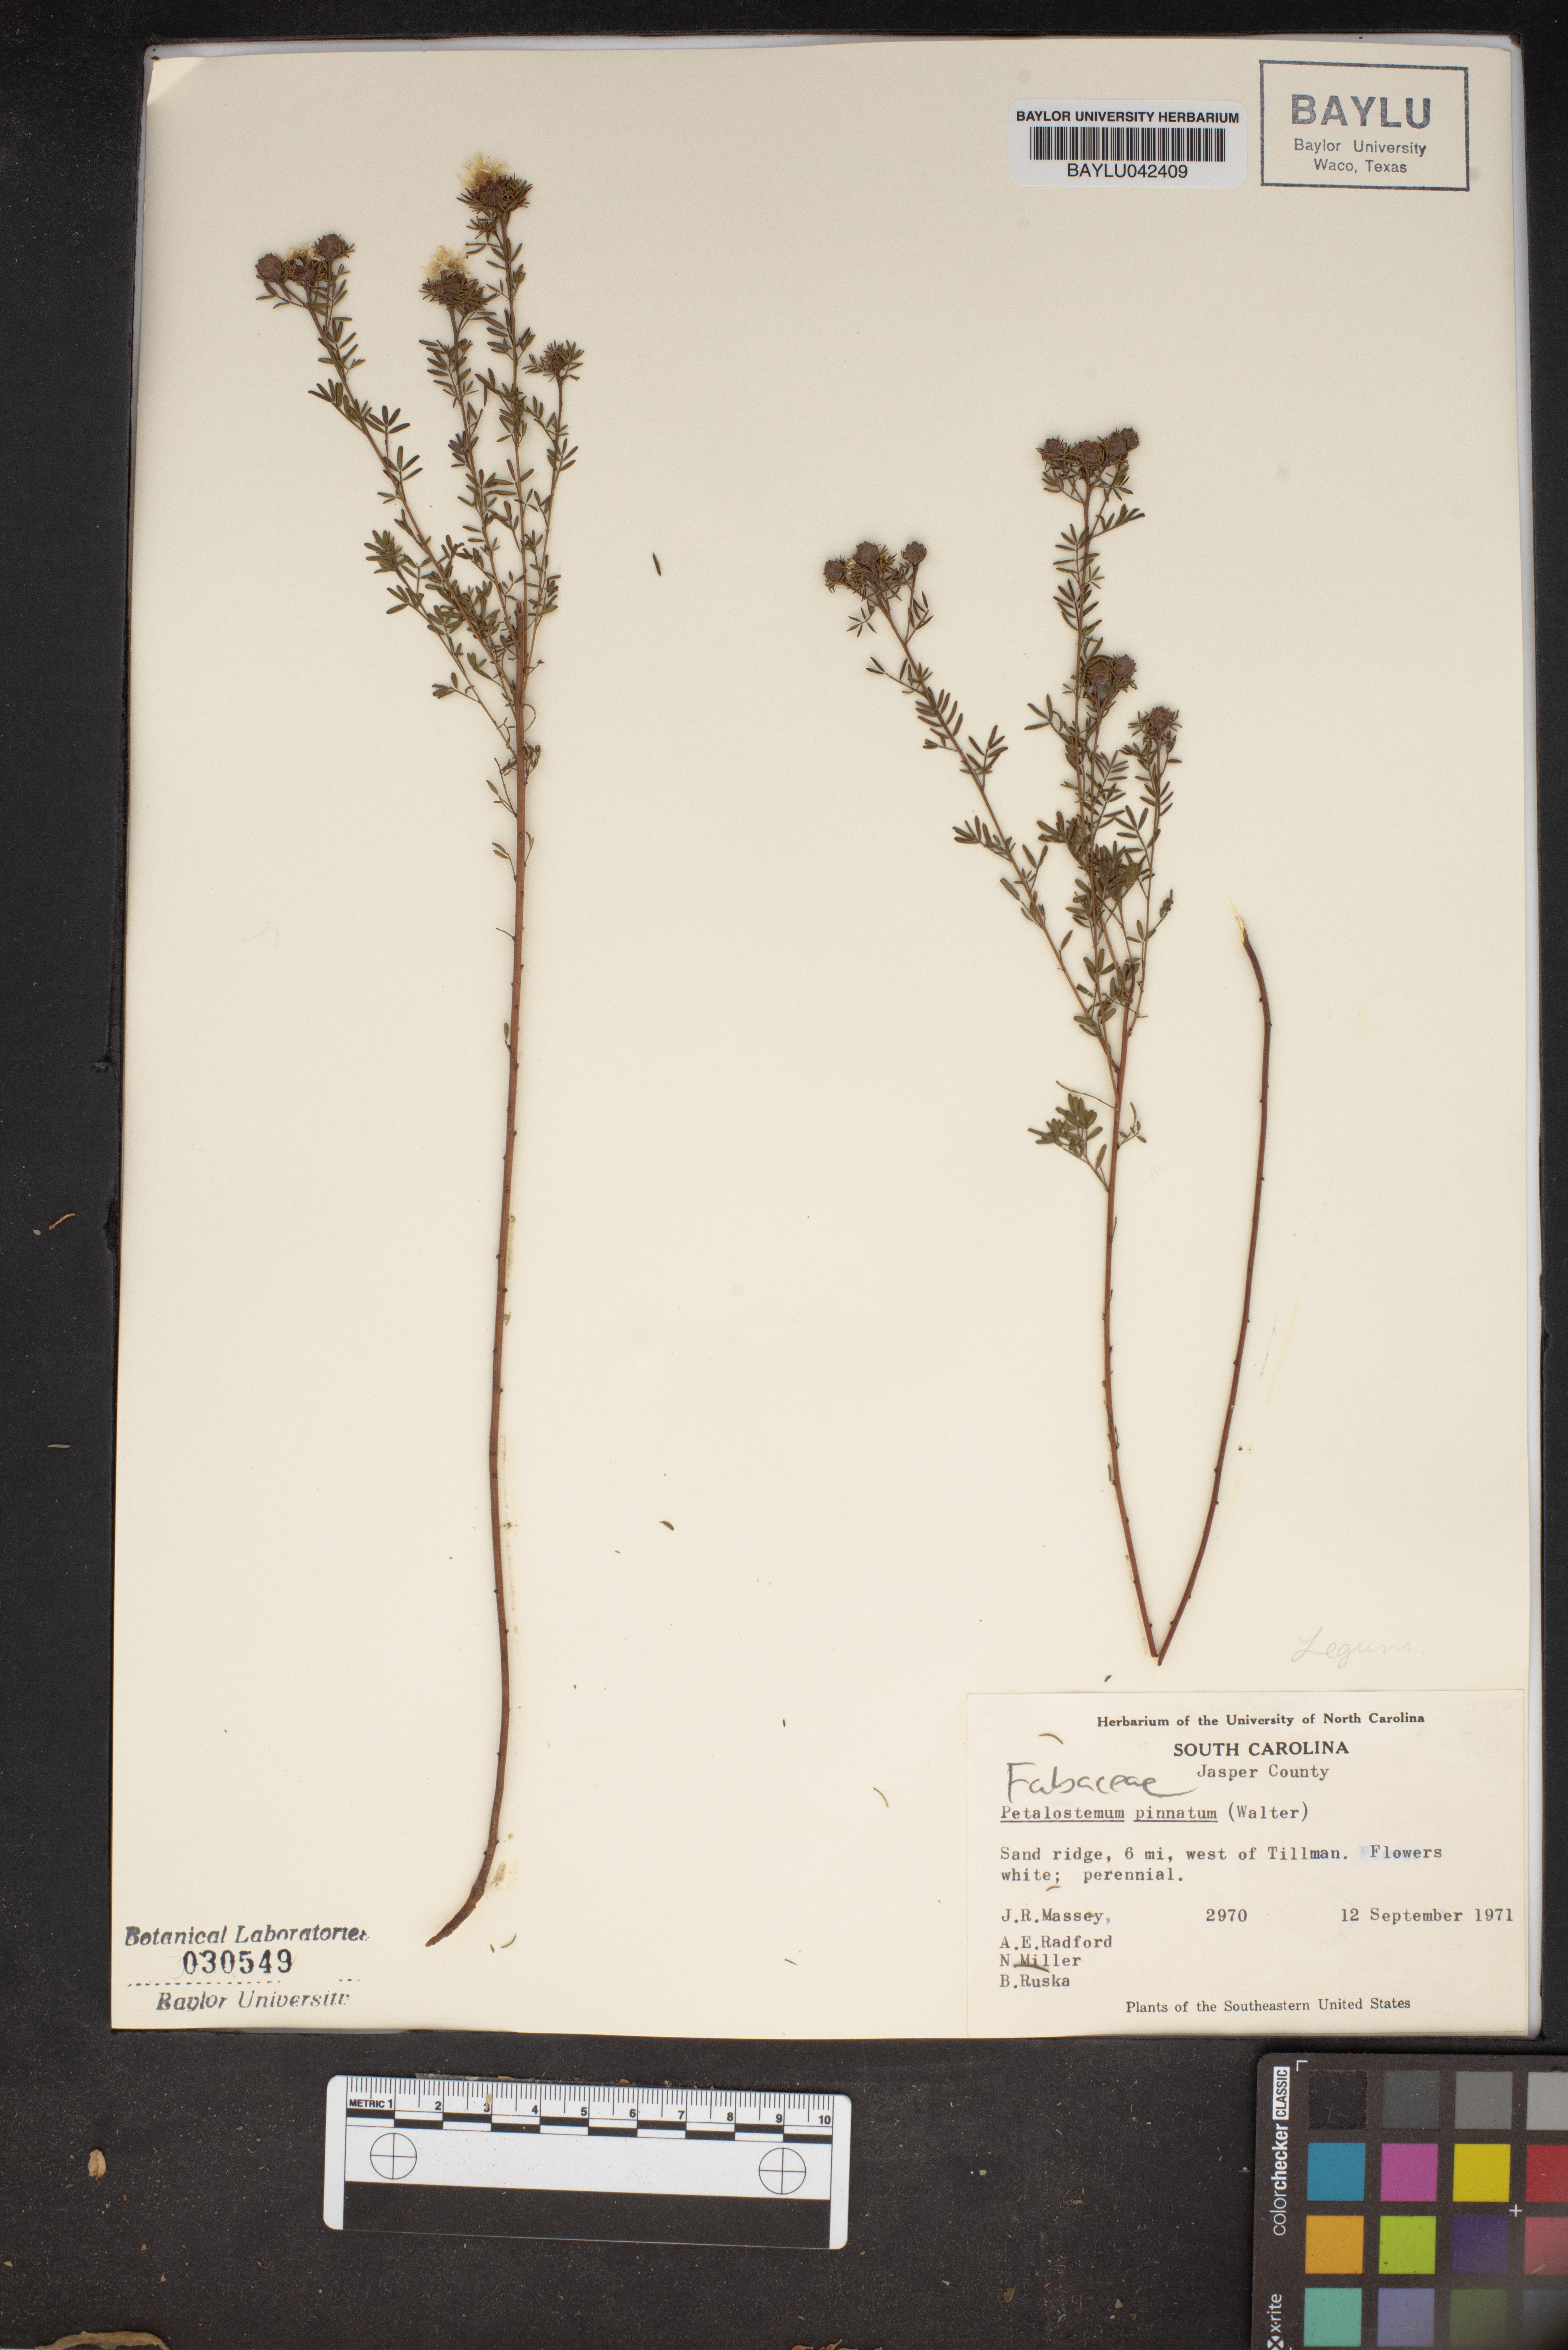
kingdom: Plantae
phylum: Tracheophyta
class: Magnoliopsida
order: Fabales
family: Fabaceae
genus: Dalea
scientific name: Dalea pinnata
